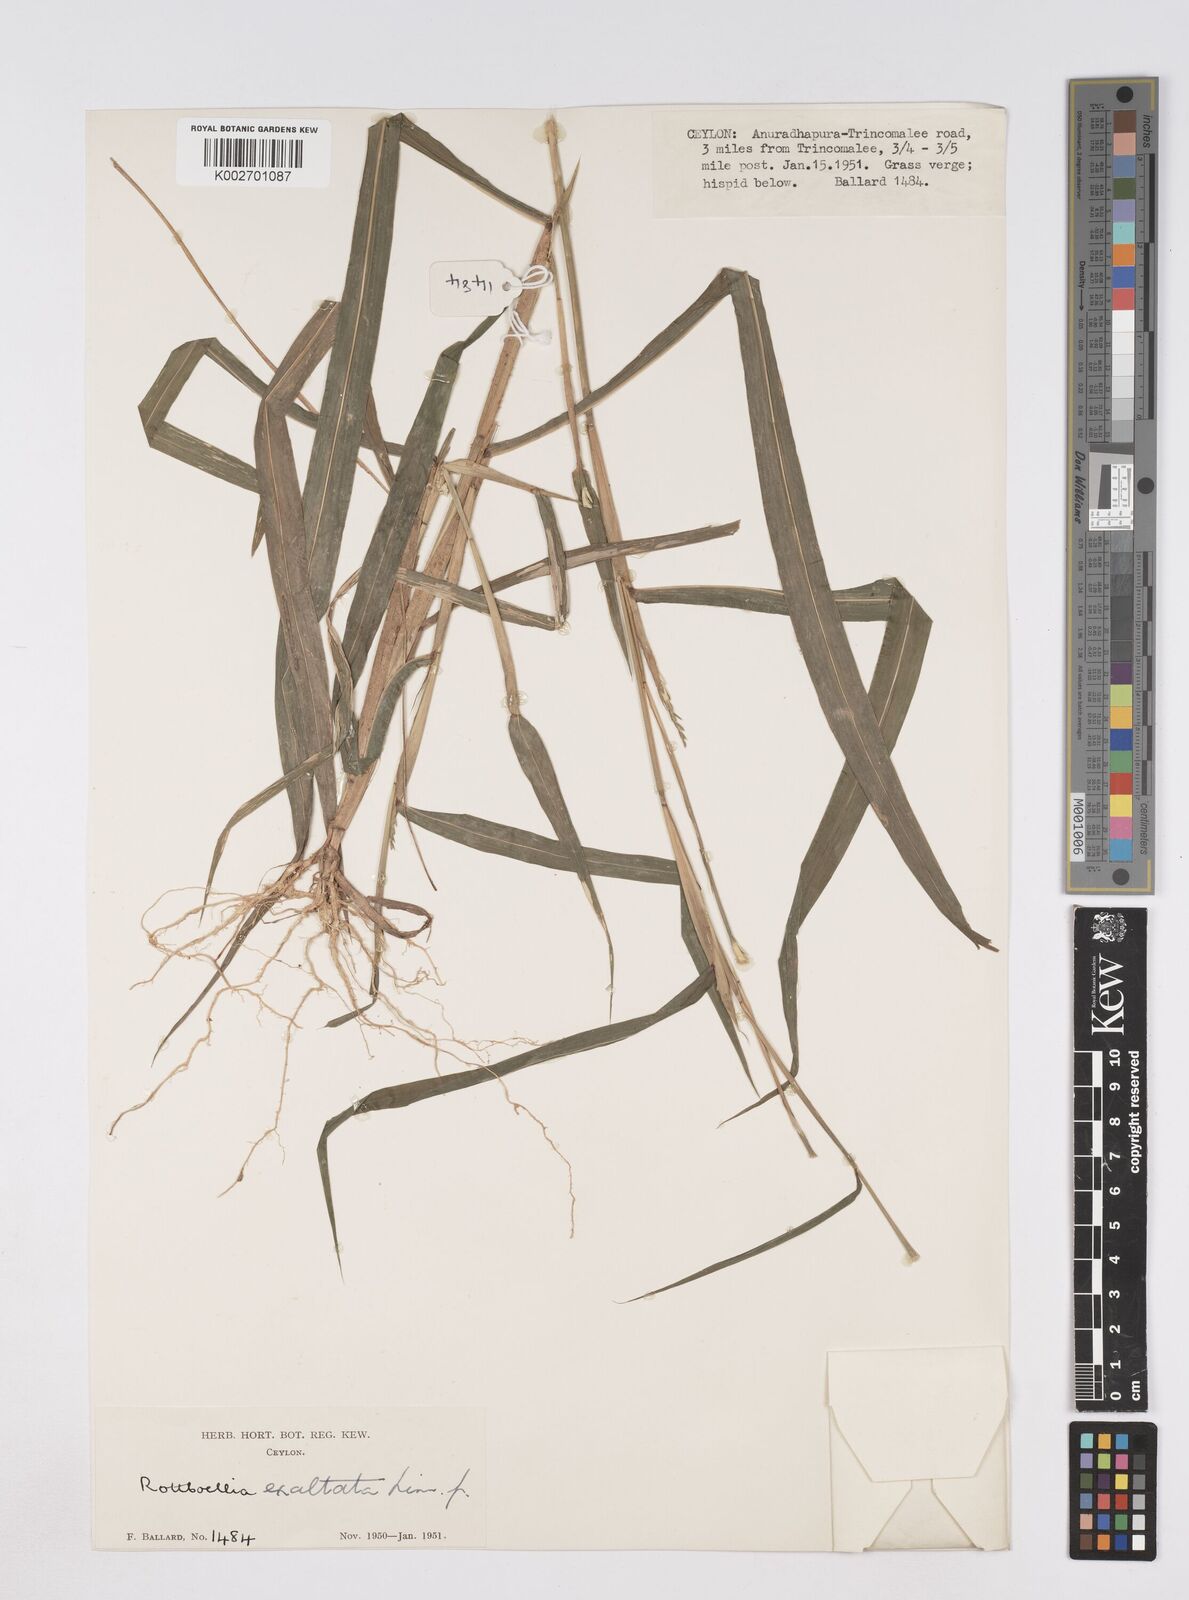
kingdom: Plantae
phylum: Tracheophyta
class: Liliopsida
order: Poales
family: Poaceae
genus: Ophiuros
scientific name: Ophiuros exaltatus
